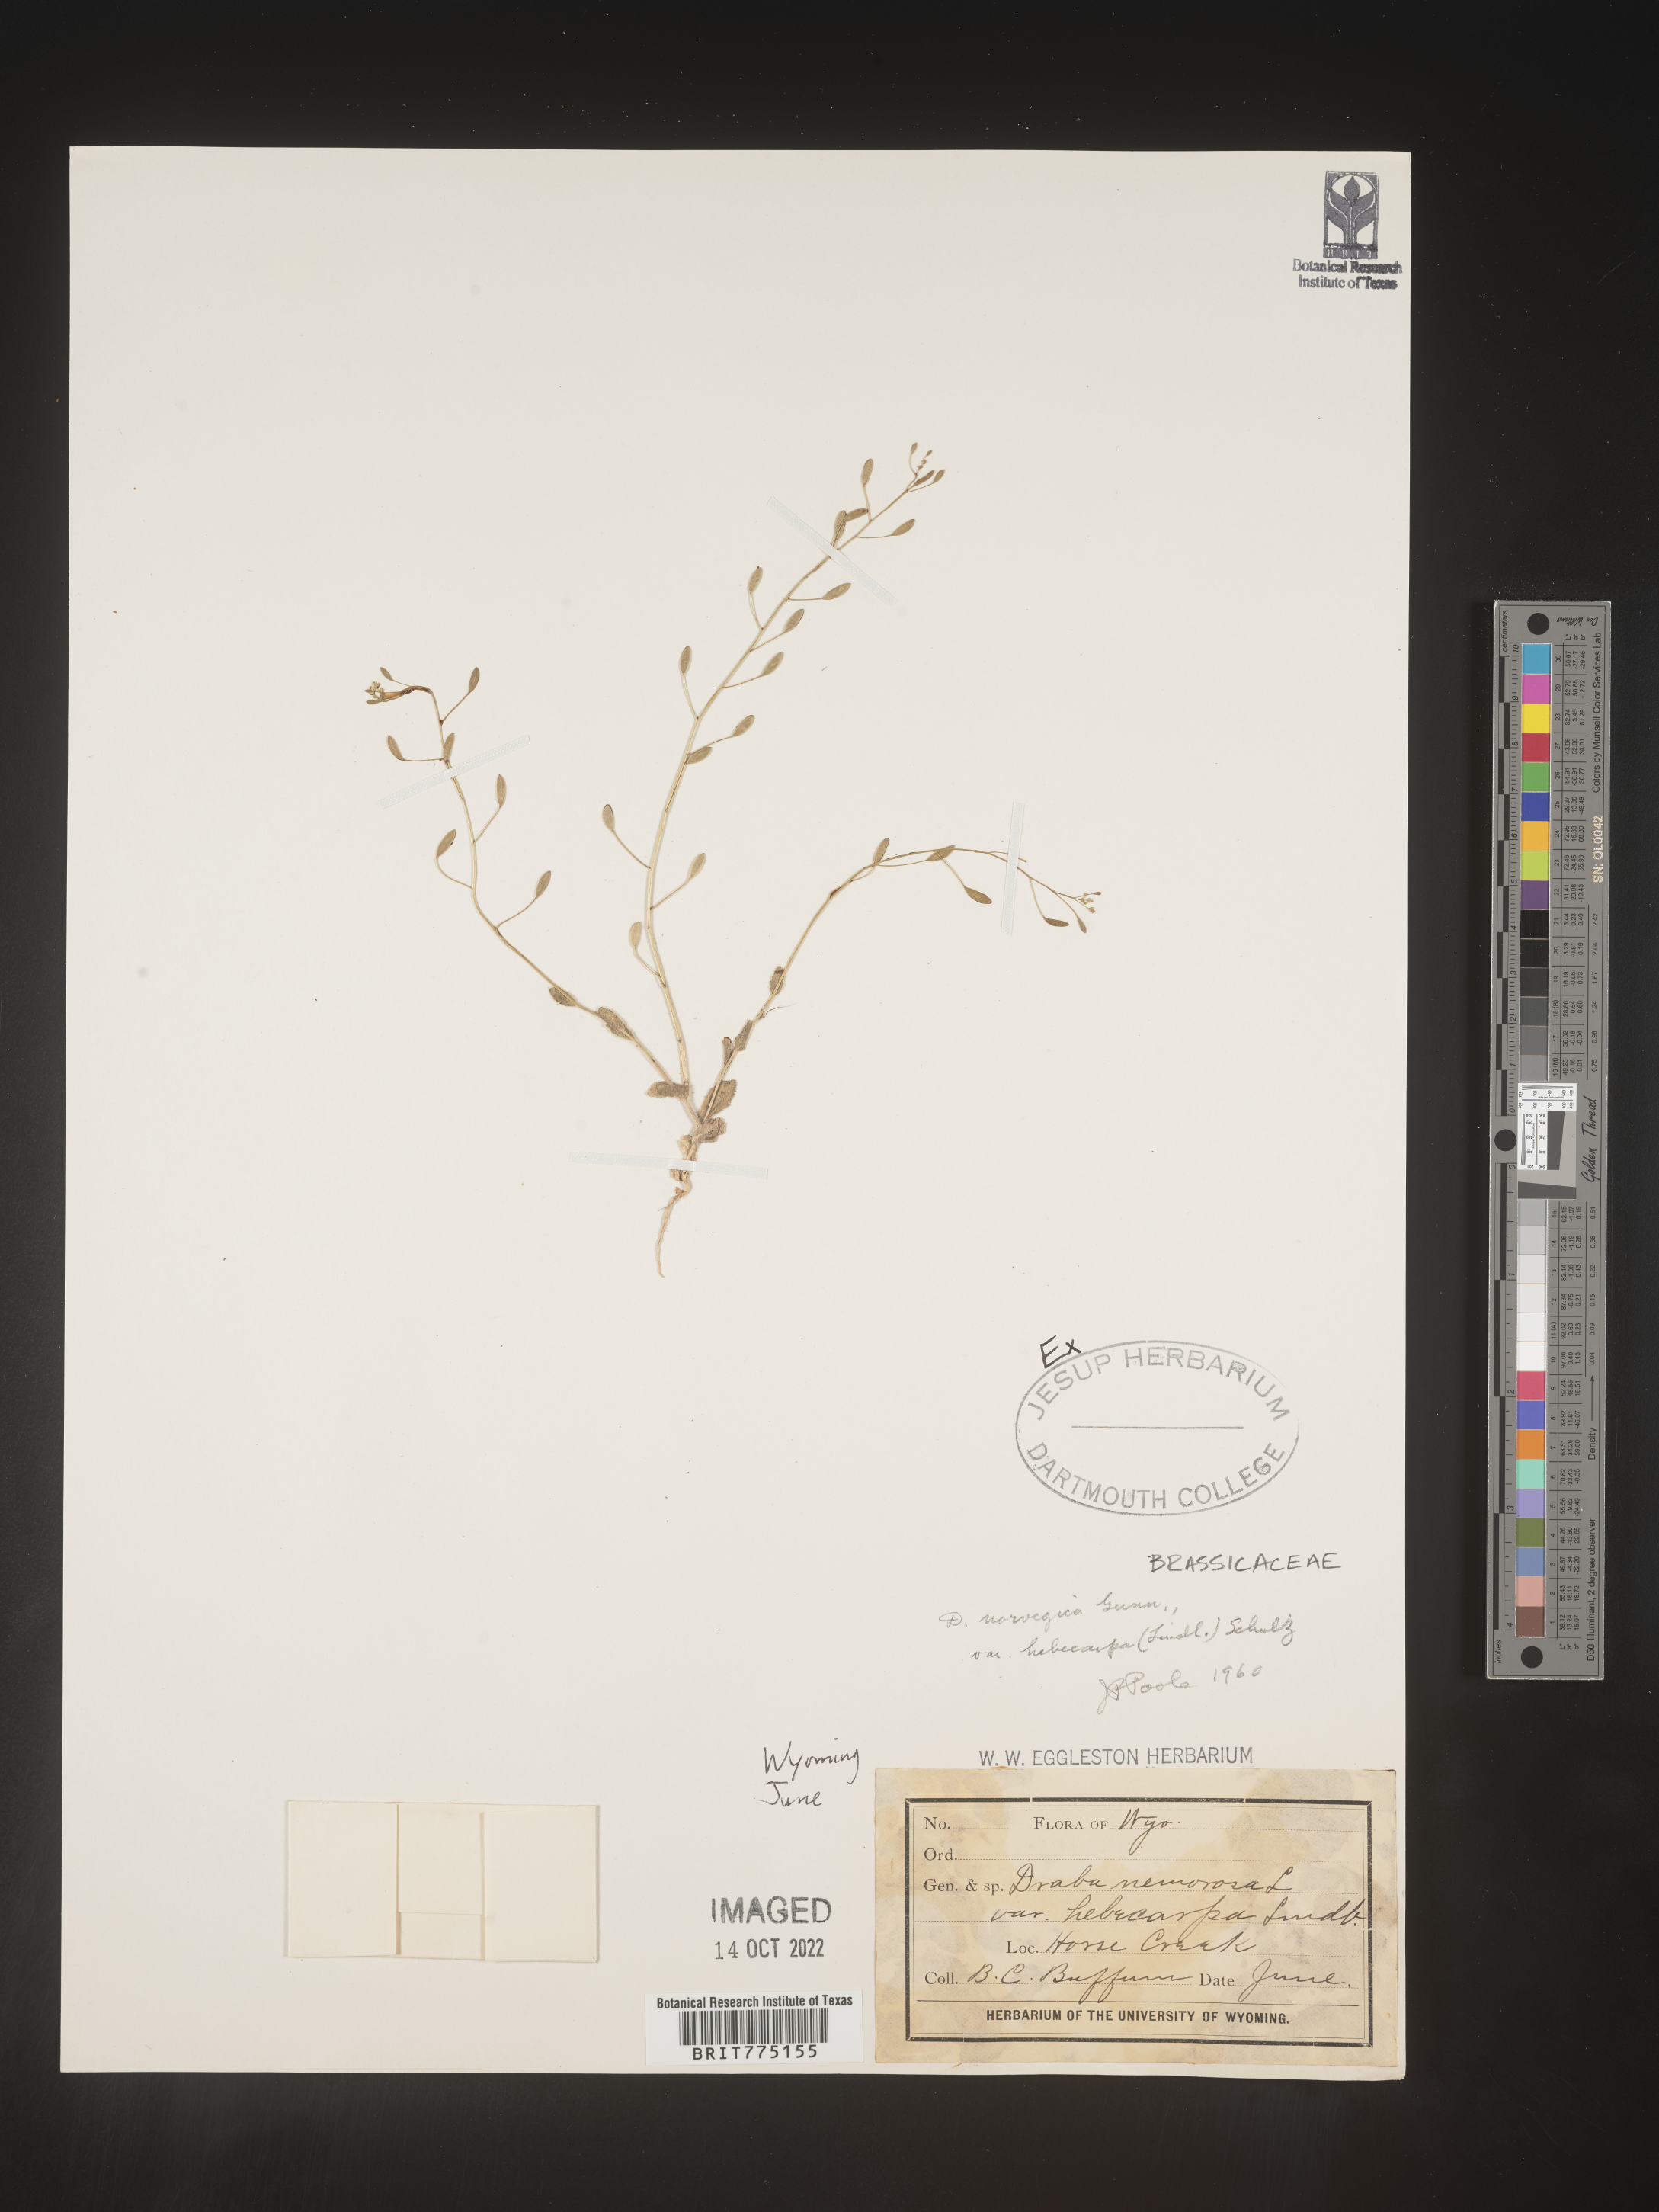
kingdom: Plantae
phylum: Tracheophyta
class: Magnoliopsida
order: Brassicales
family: Brassicaceae
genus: Draba
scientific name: Draba
